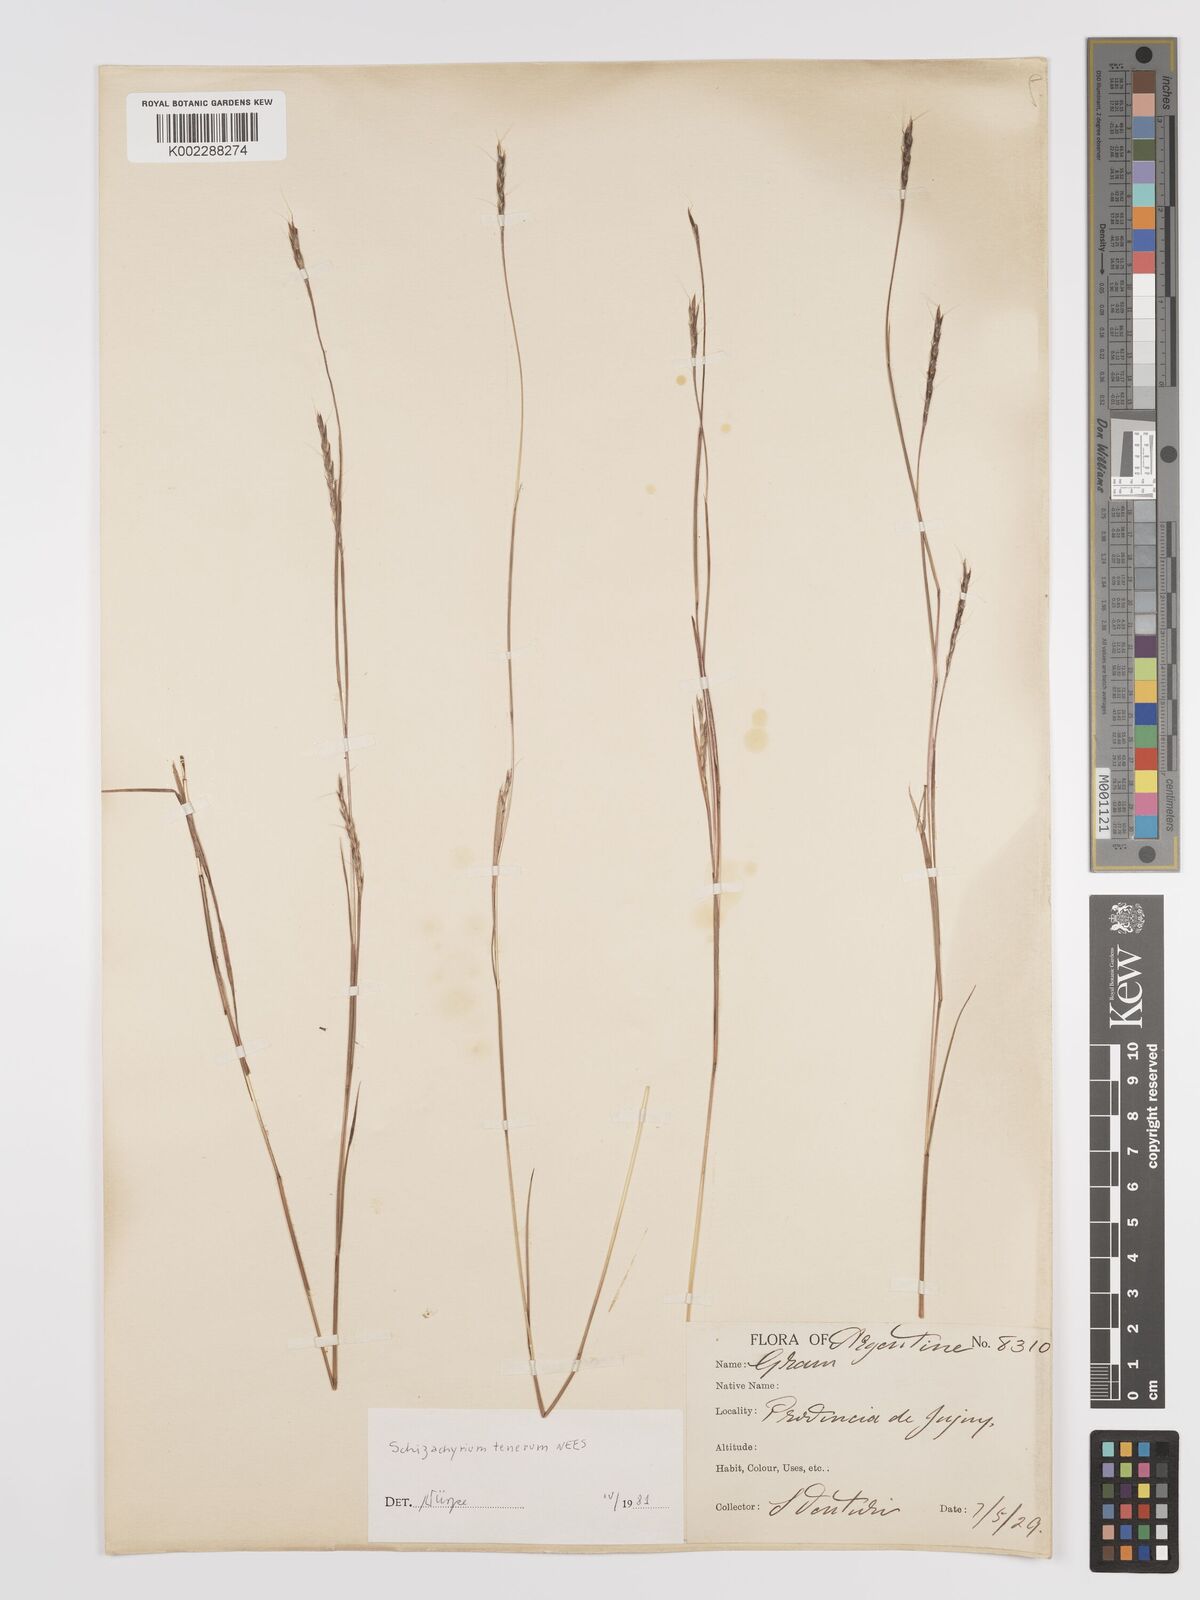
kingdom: Plantae
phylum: Tracheophyta
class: Liliopsida
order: Poales
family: Poaceae
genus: Andropogon
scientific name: Andropogon tener
